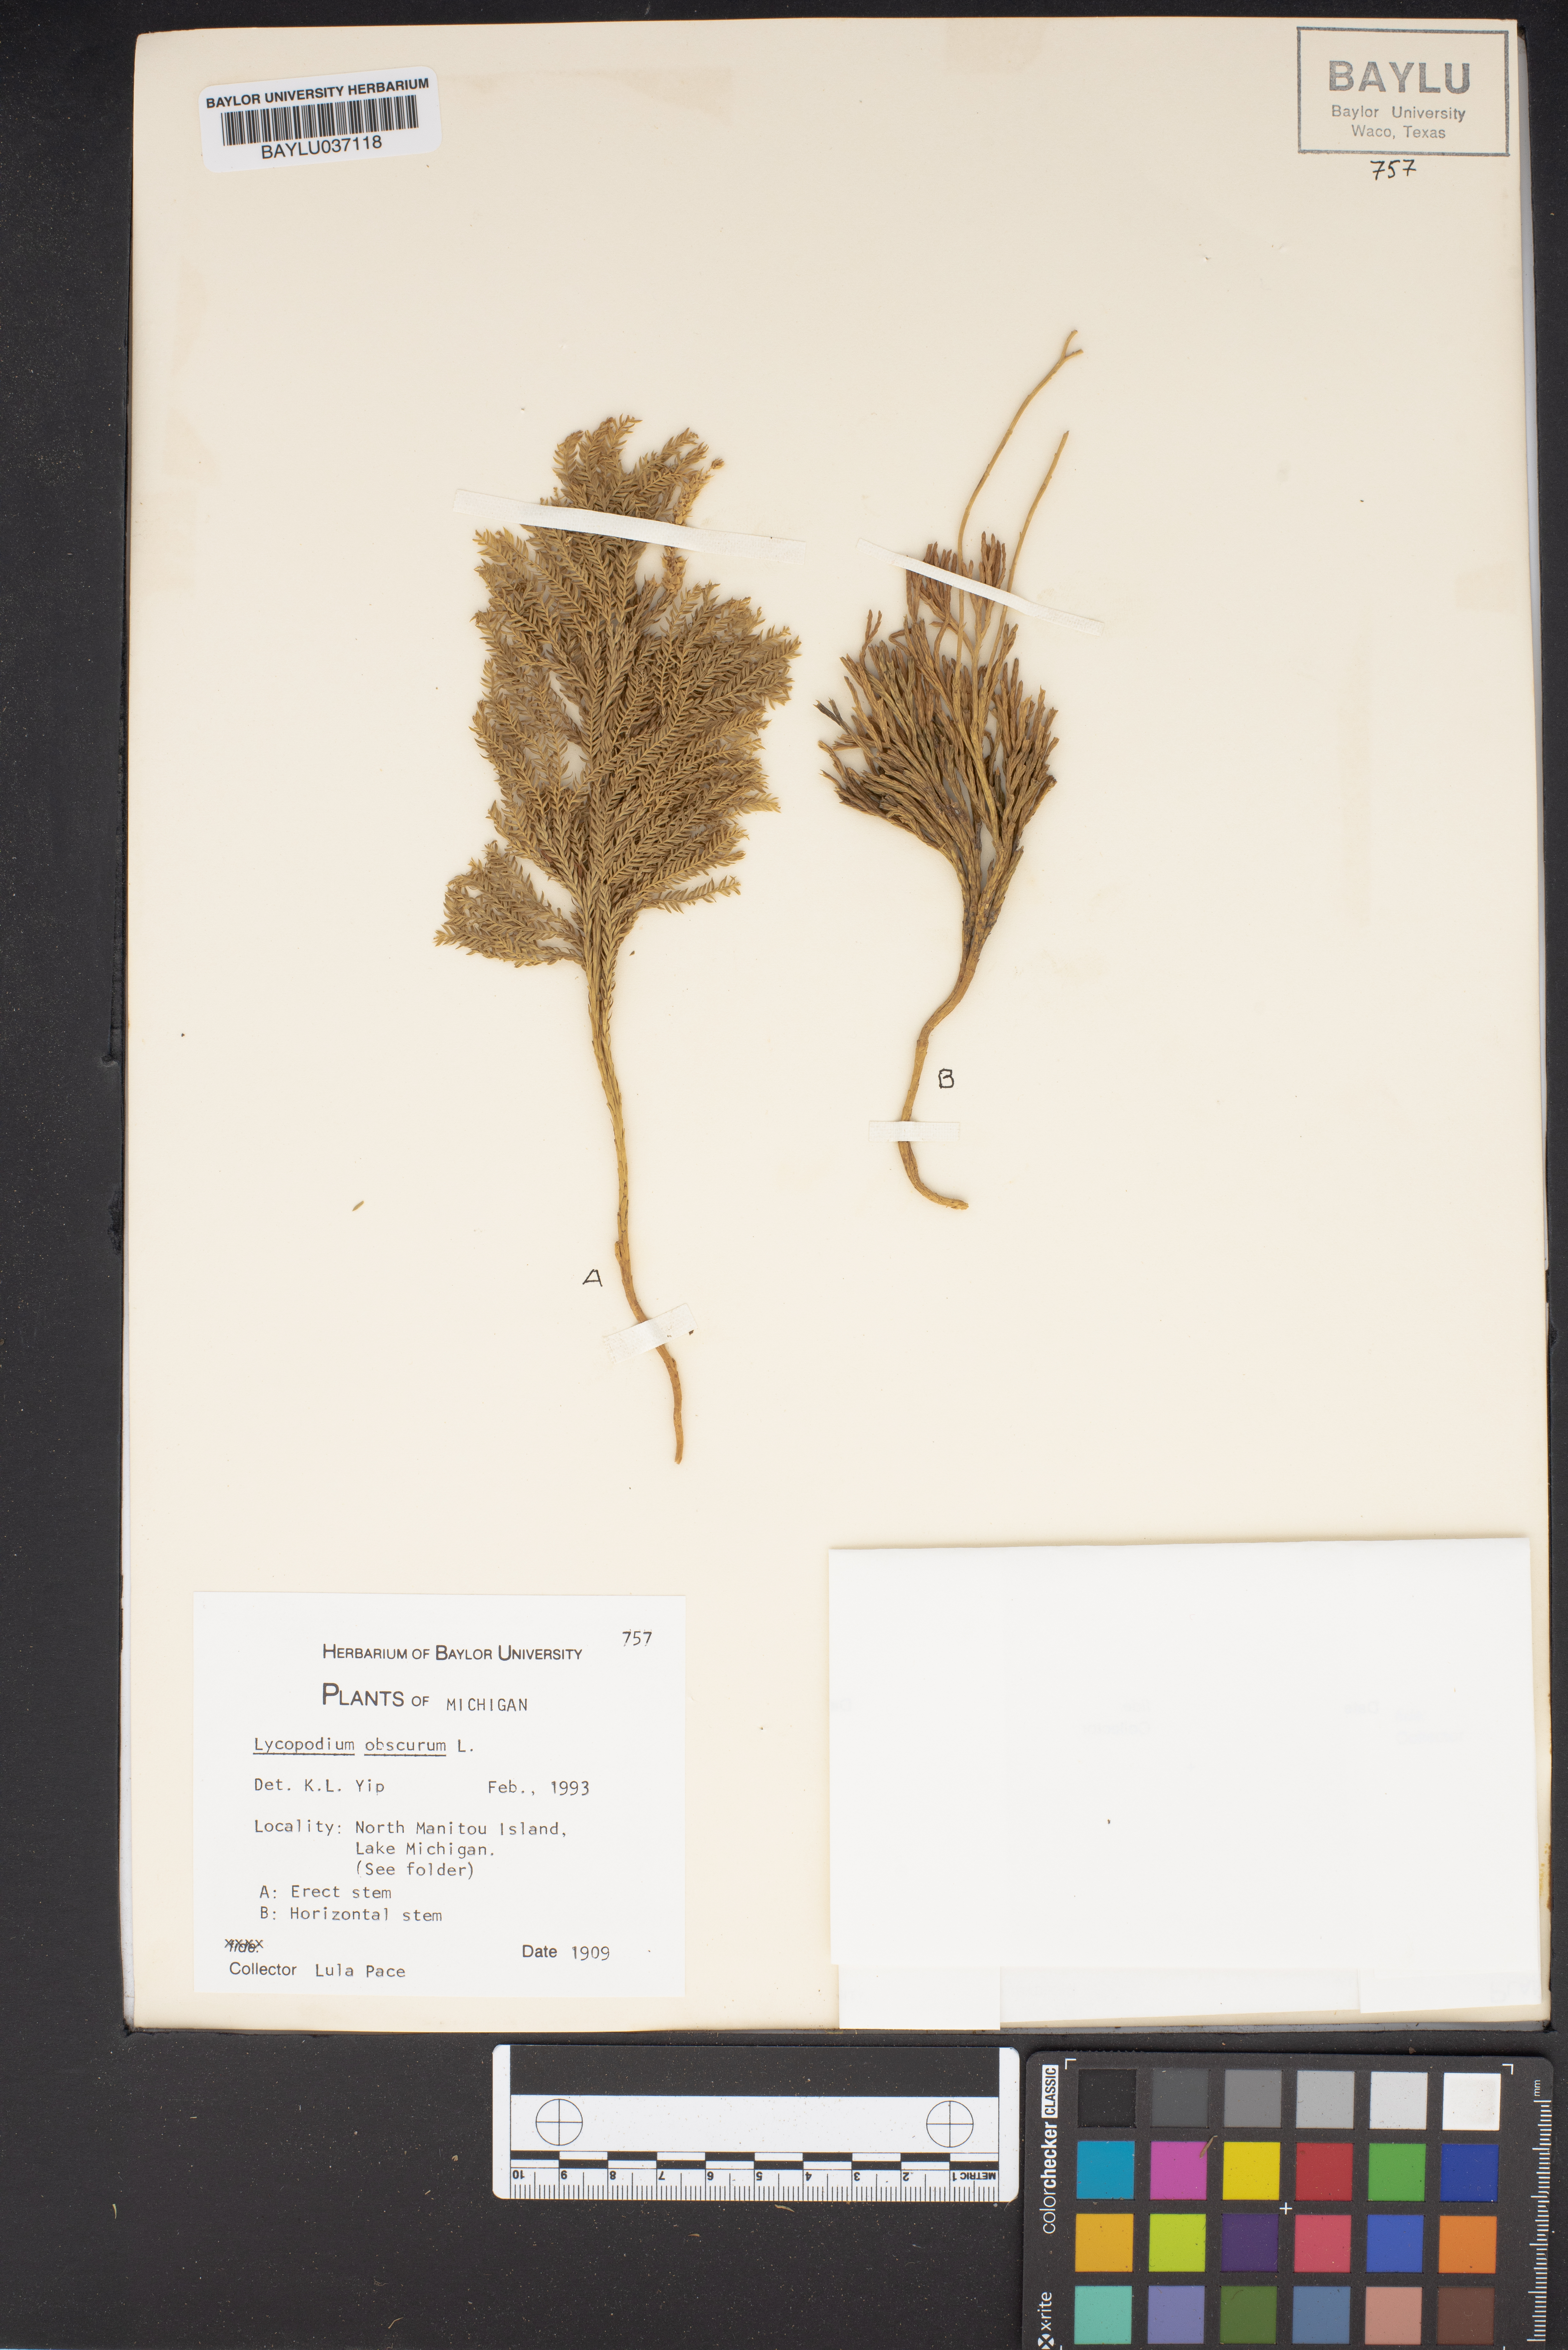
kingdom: Plantae
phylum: Tracheophyta
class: Lycopodiopsida
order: Lycopodiales
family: Lycopodiaceae
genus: Dendrolycopodium
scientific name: Dendrolycopodium obscurum
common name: Common ground-pine
